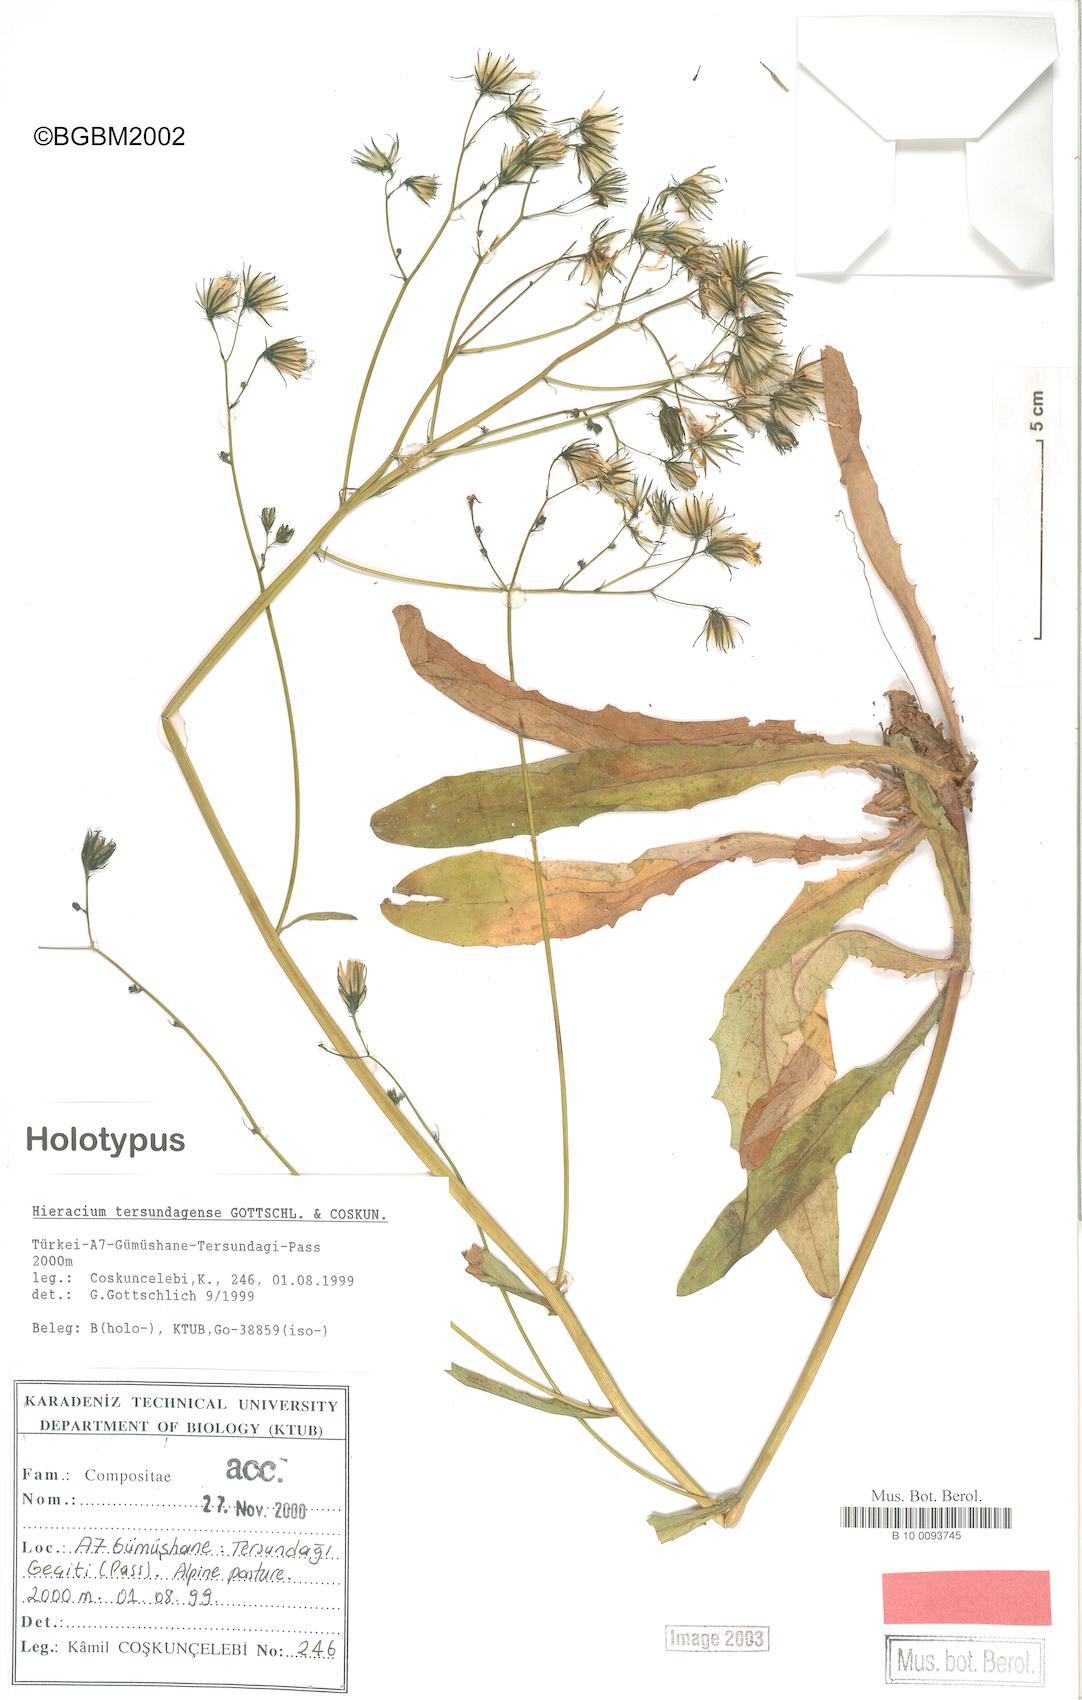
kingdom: Plantae
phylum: Tracheophyta
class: Magnoliopsida
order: Asterales
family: Asteraceae
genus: Hieracium
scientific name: Hieracium tersundagense
